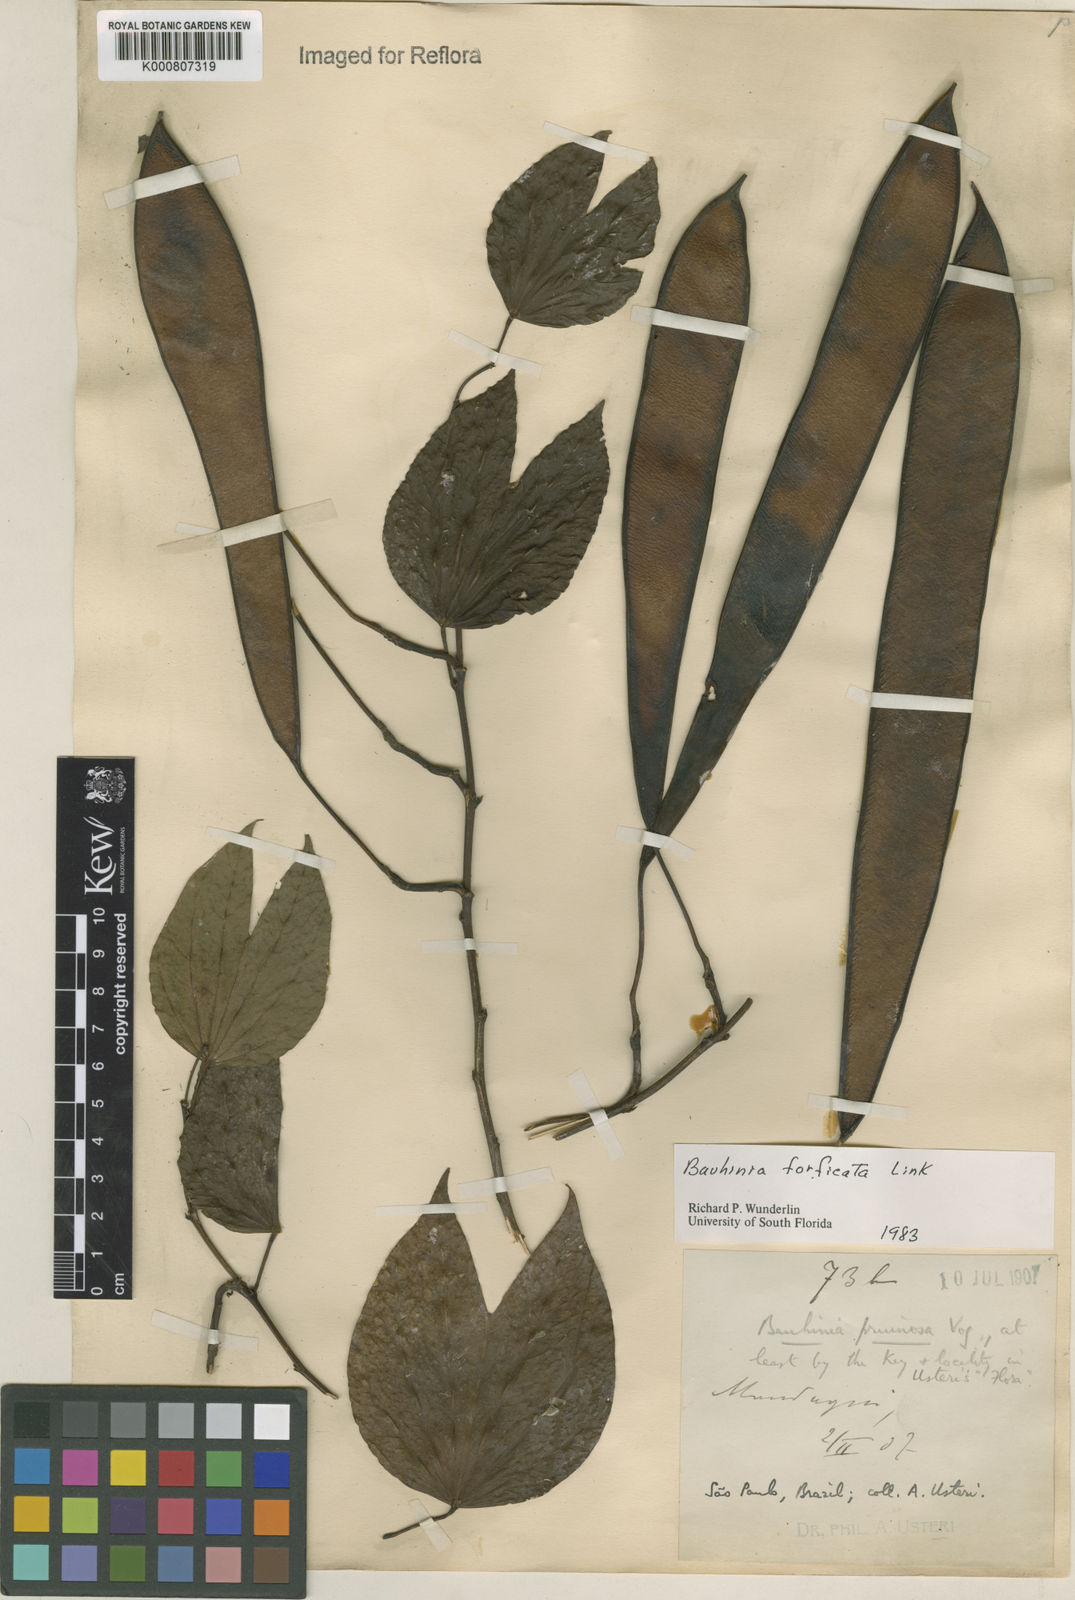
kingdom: Plantae
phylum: Tracheophyta
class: Magnoliopsida
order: Fabales
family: Fabaceae
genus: Bauhinia
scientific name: Bauhinia forficata
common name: Orchid tree
